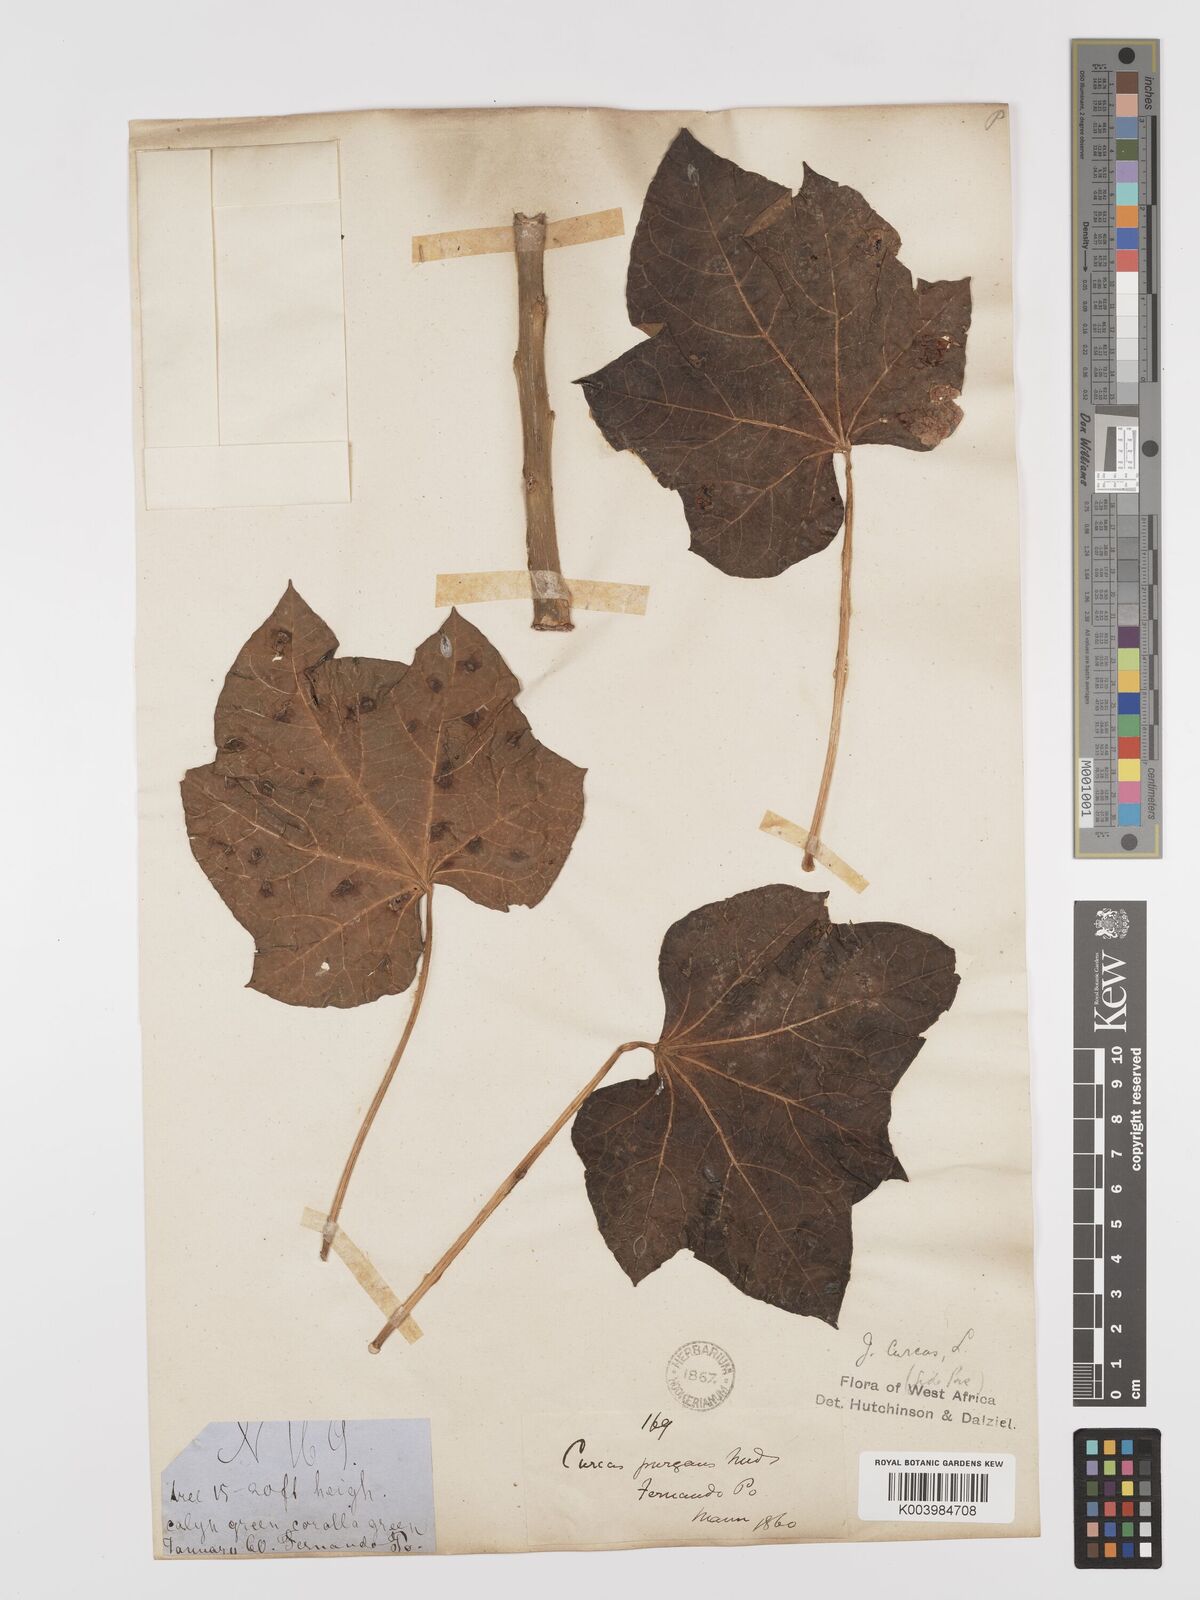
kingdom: Plantae
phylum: Tracheophyta
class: Magnoliopsida
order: Malpighiales
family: Euphorbiaceae
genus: Jatropha
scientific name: Jatropha curcas
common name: Barbados nut
